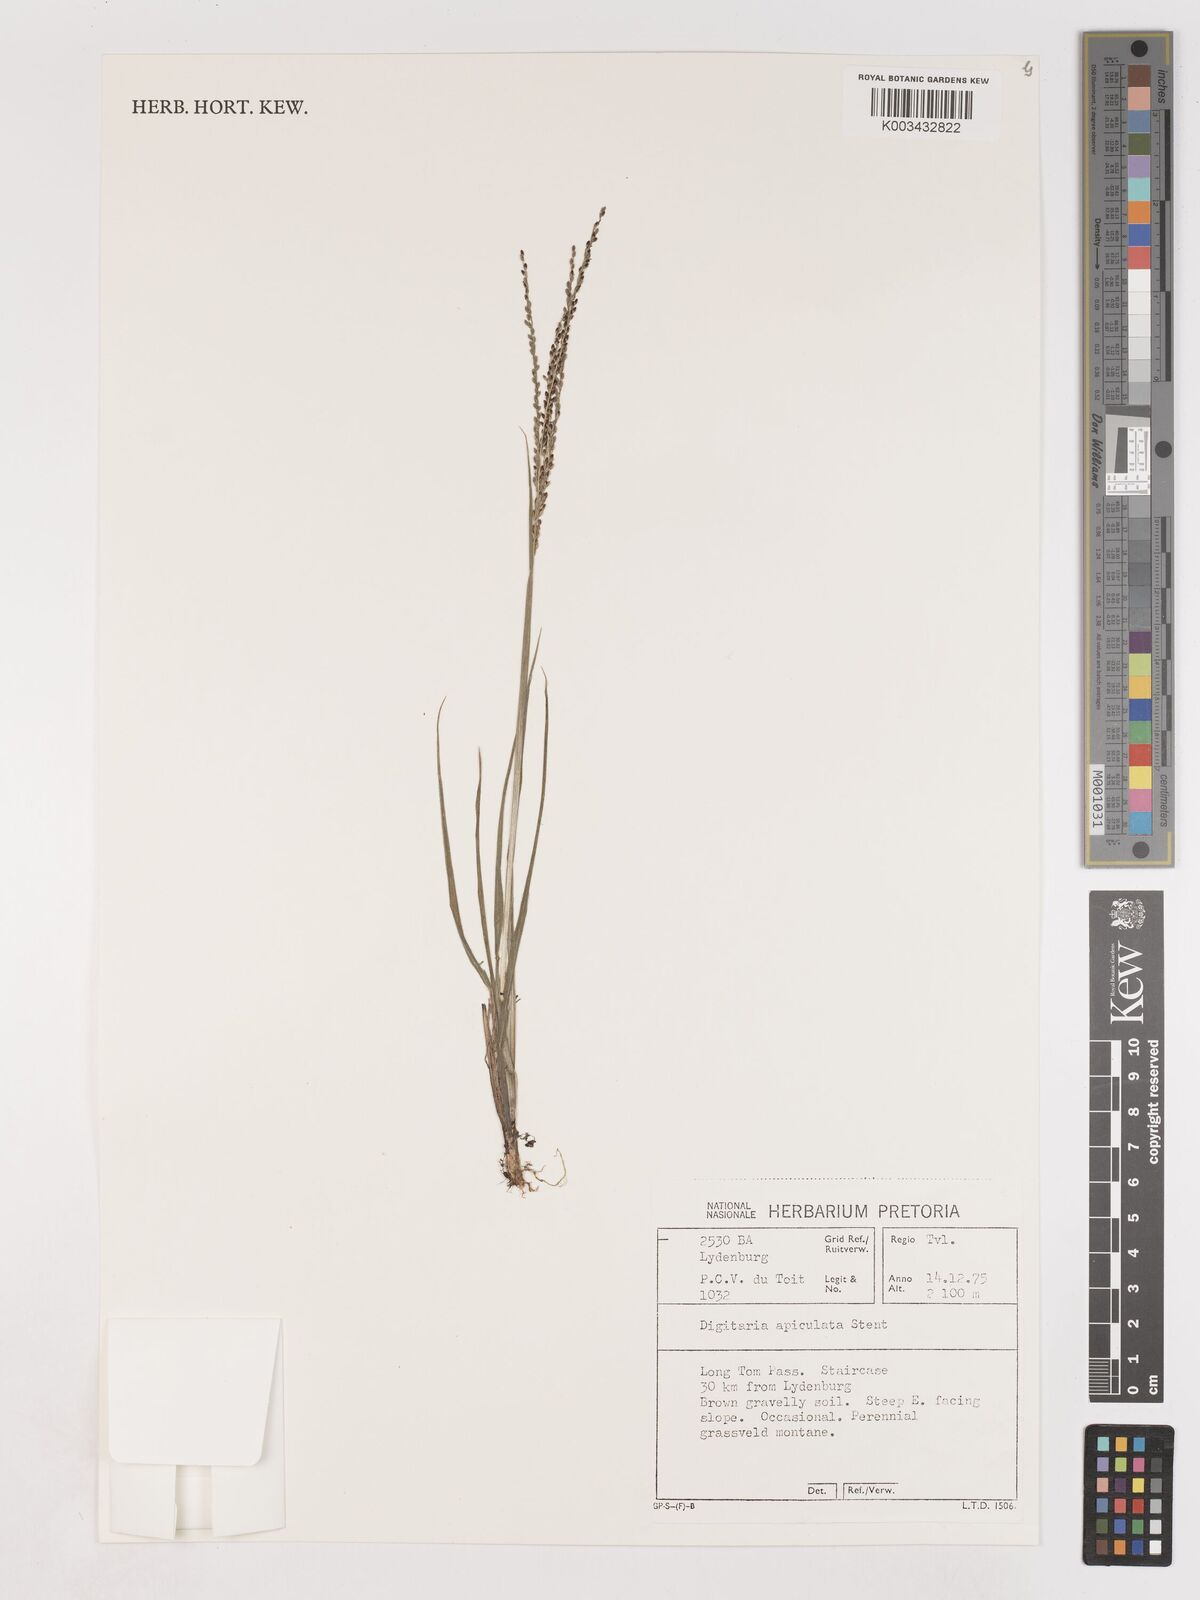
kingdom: Plantae
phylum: Tracheophyta
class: Liliopsida
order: Poales
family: Poaceae
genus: Digitaria
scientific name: Digitaria maitlandii
